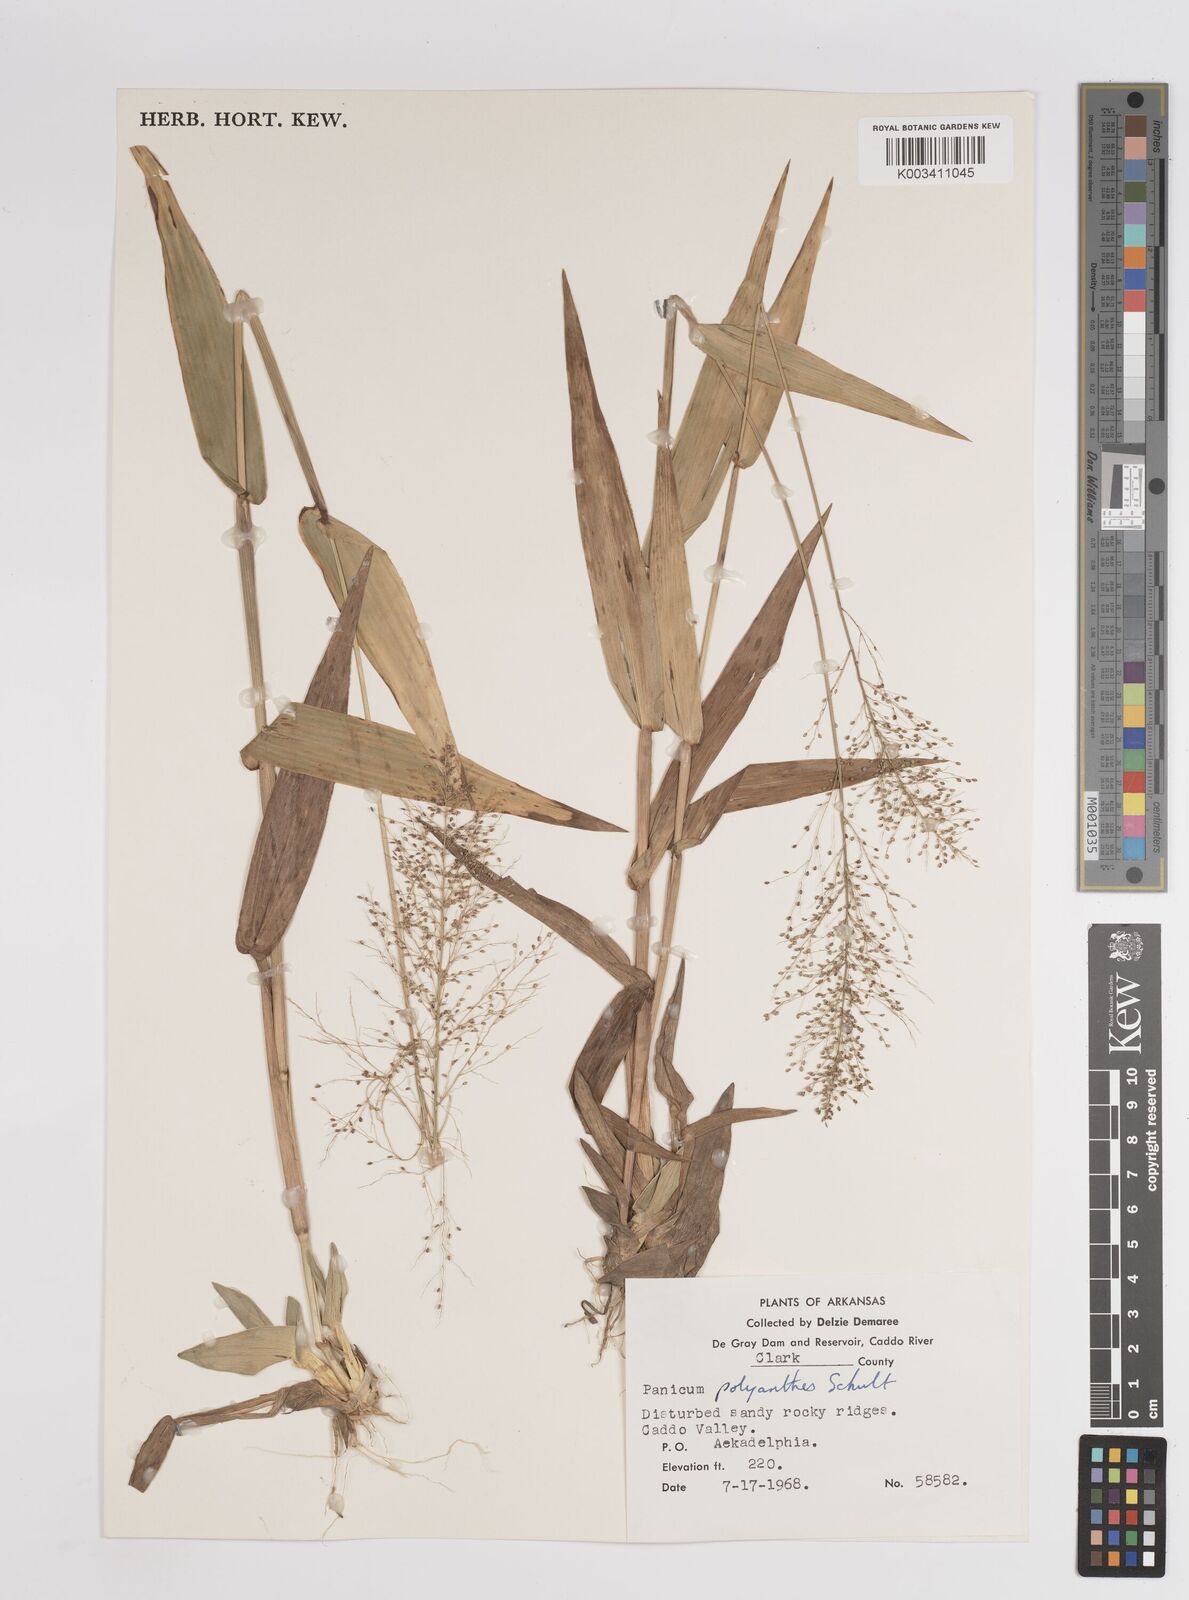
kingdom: Plantae
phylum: Tracheophyta
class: Liliopsida
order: Poales
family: Poaceae
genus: Dichanthelium
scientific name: Dichanthelium polyanthes
